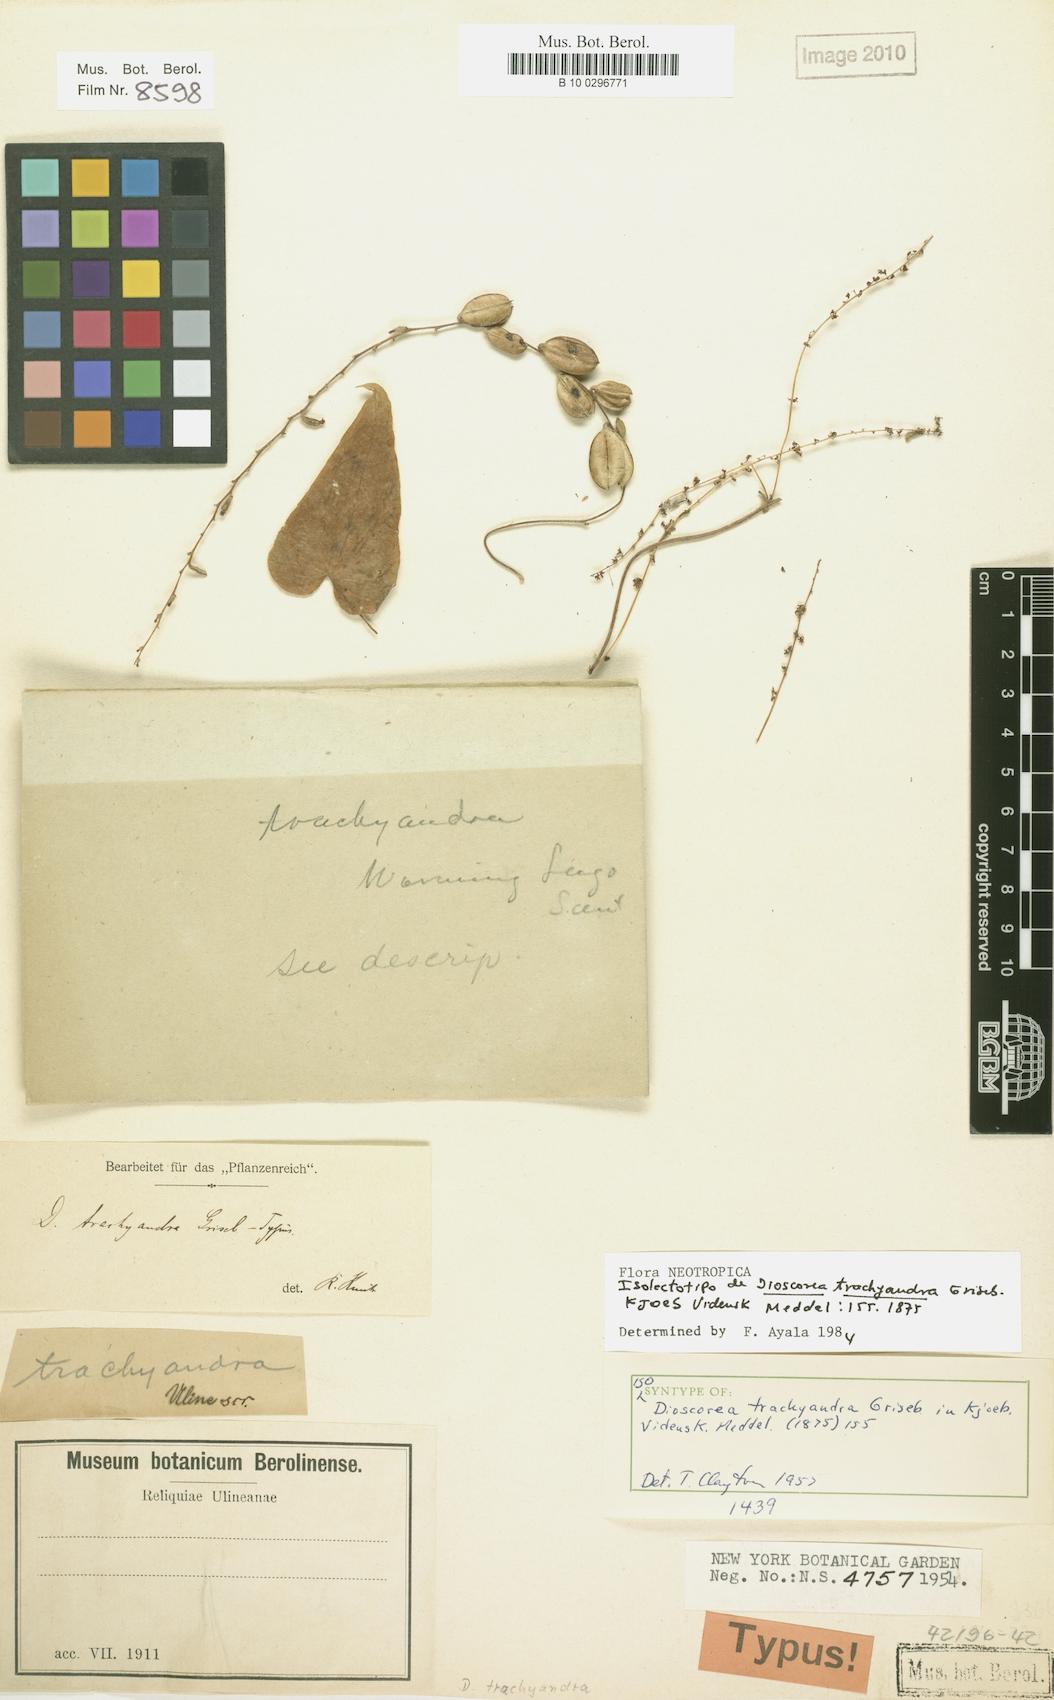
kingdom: Plantae
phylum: Tracheophyta
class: Liliopsida
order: Dioscoreales
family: Dioscoreaceae
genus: Dioscorea
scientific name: Dioscorea trachyandra
